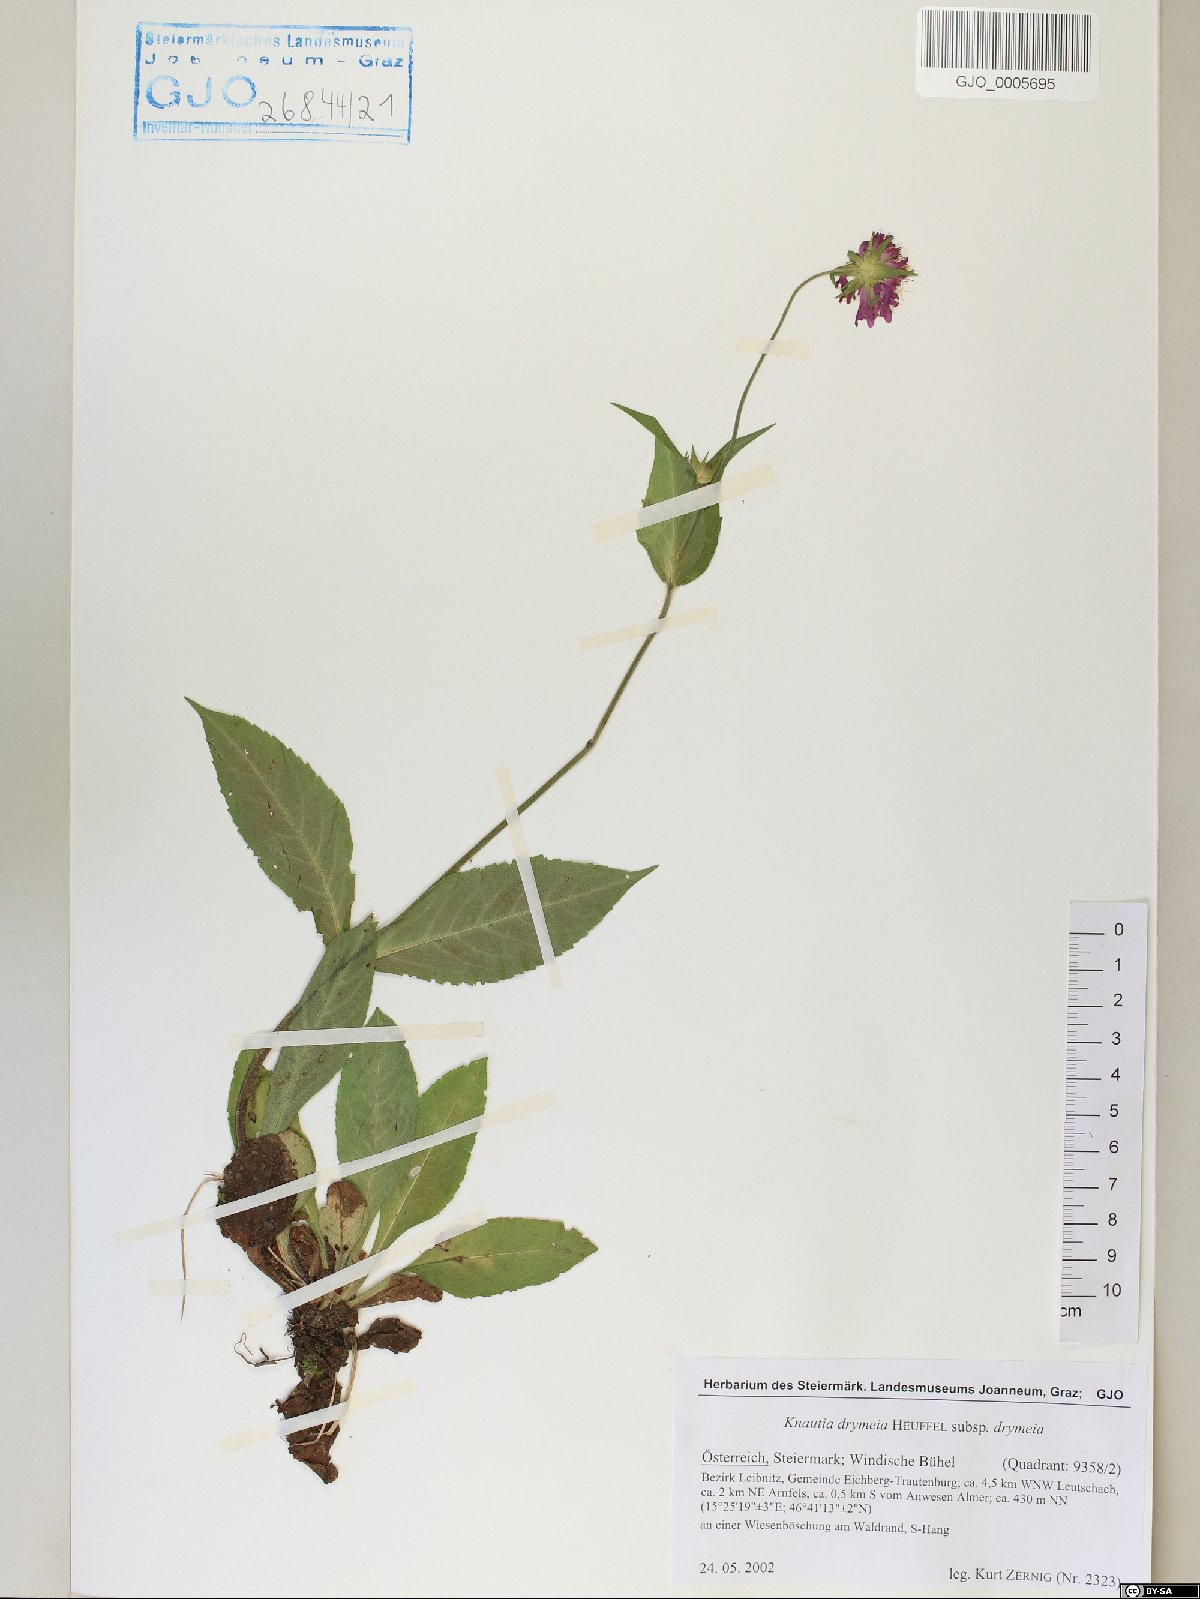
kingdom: Plantae
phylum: Tracheophyta
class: Magnoliopsida
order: Dipsacales
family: Caprifoliaceae
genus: Knautia
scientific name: Knautia drymeia
